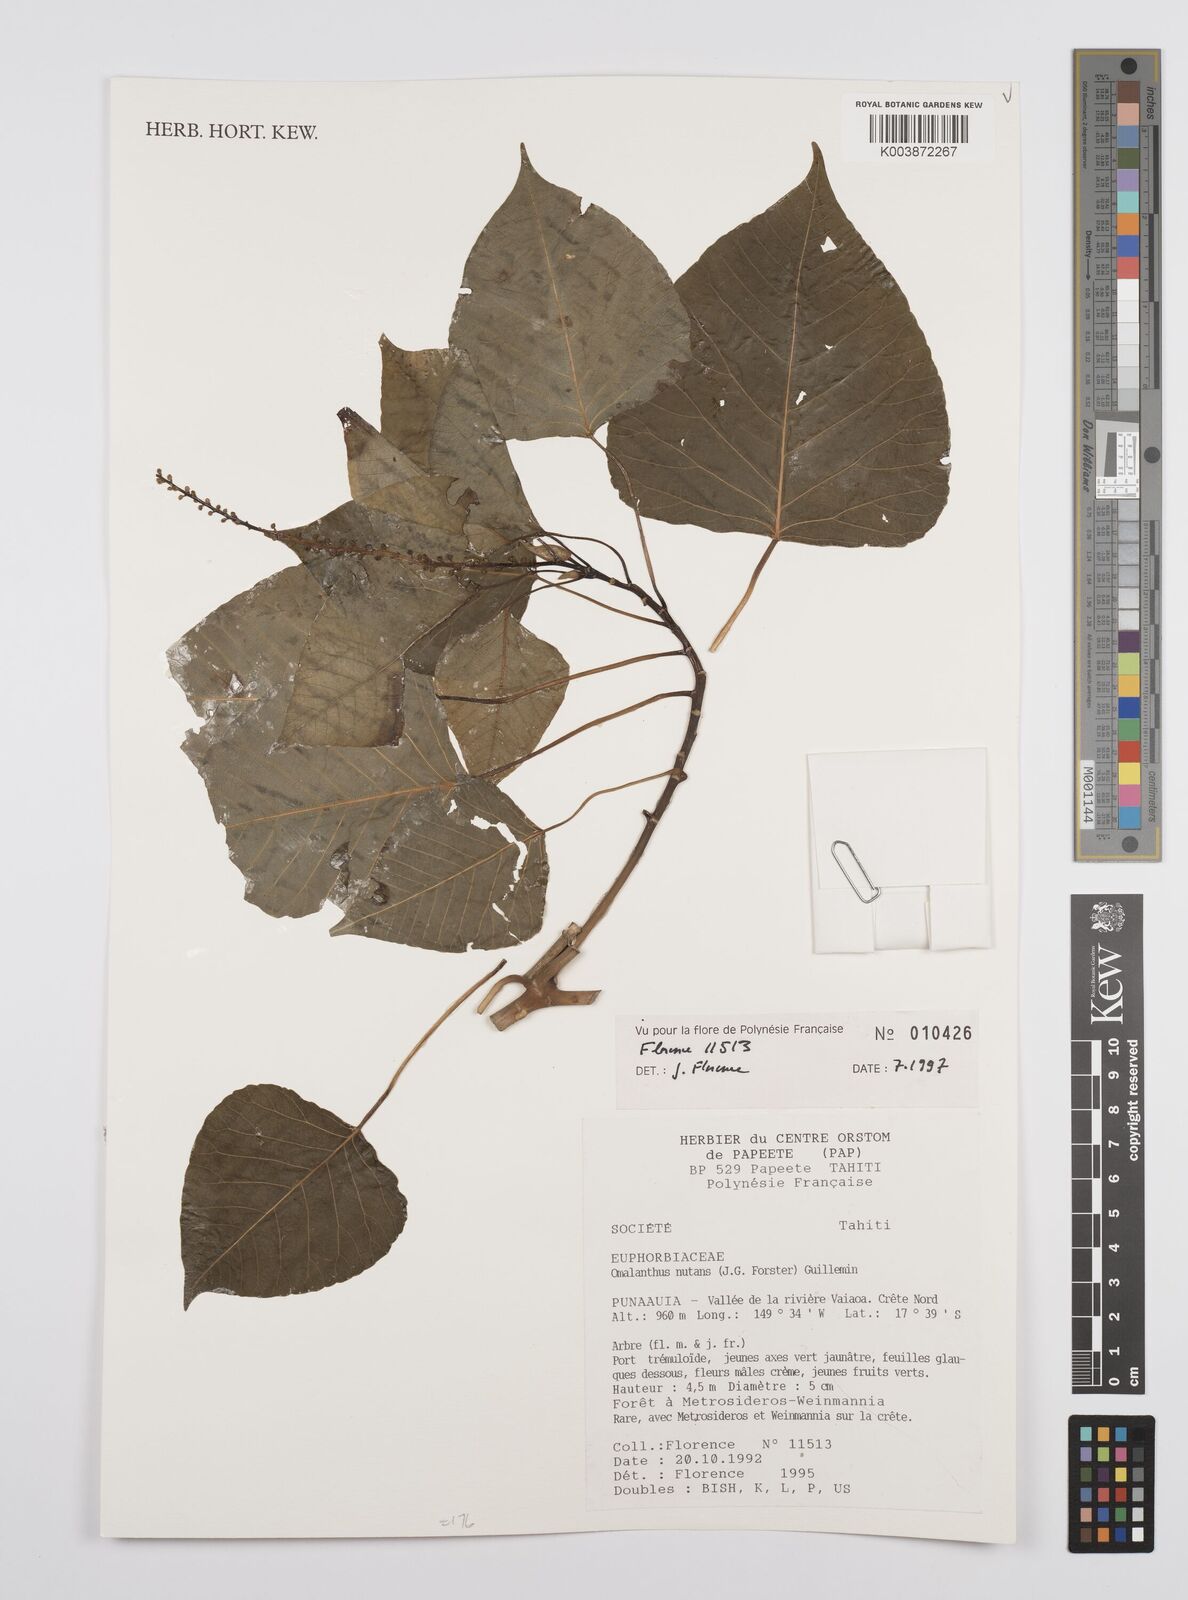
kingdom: Plantae
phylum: Tracheophyta
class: Magnoliopsida
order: Malpighiales
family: Euphorbiaceae
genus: Homalanthus
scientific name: Homalanthus nutans
